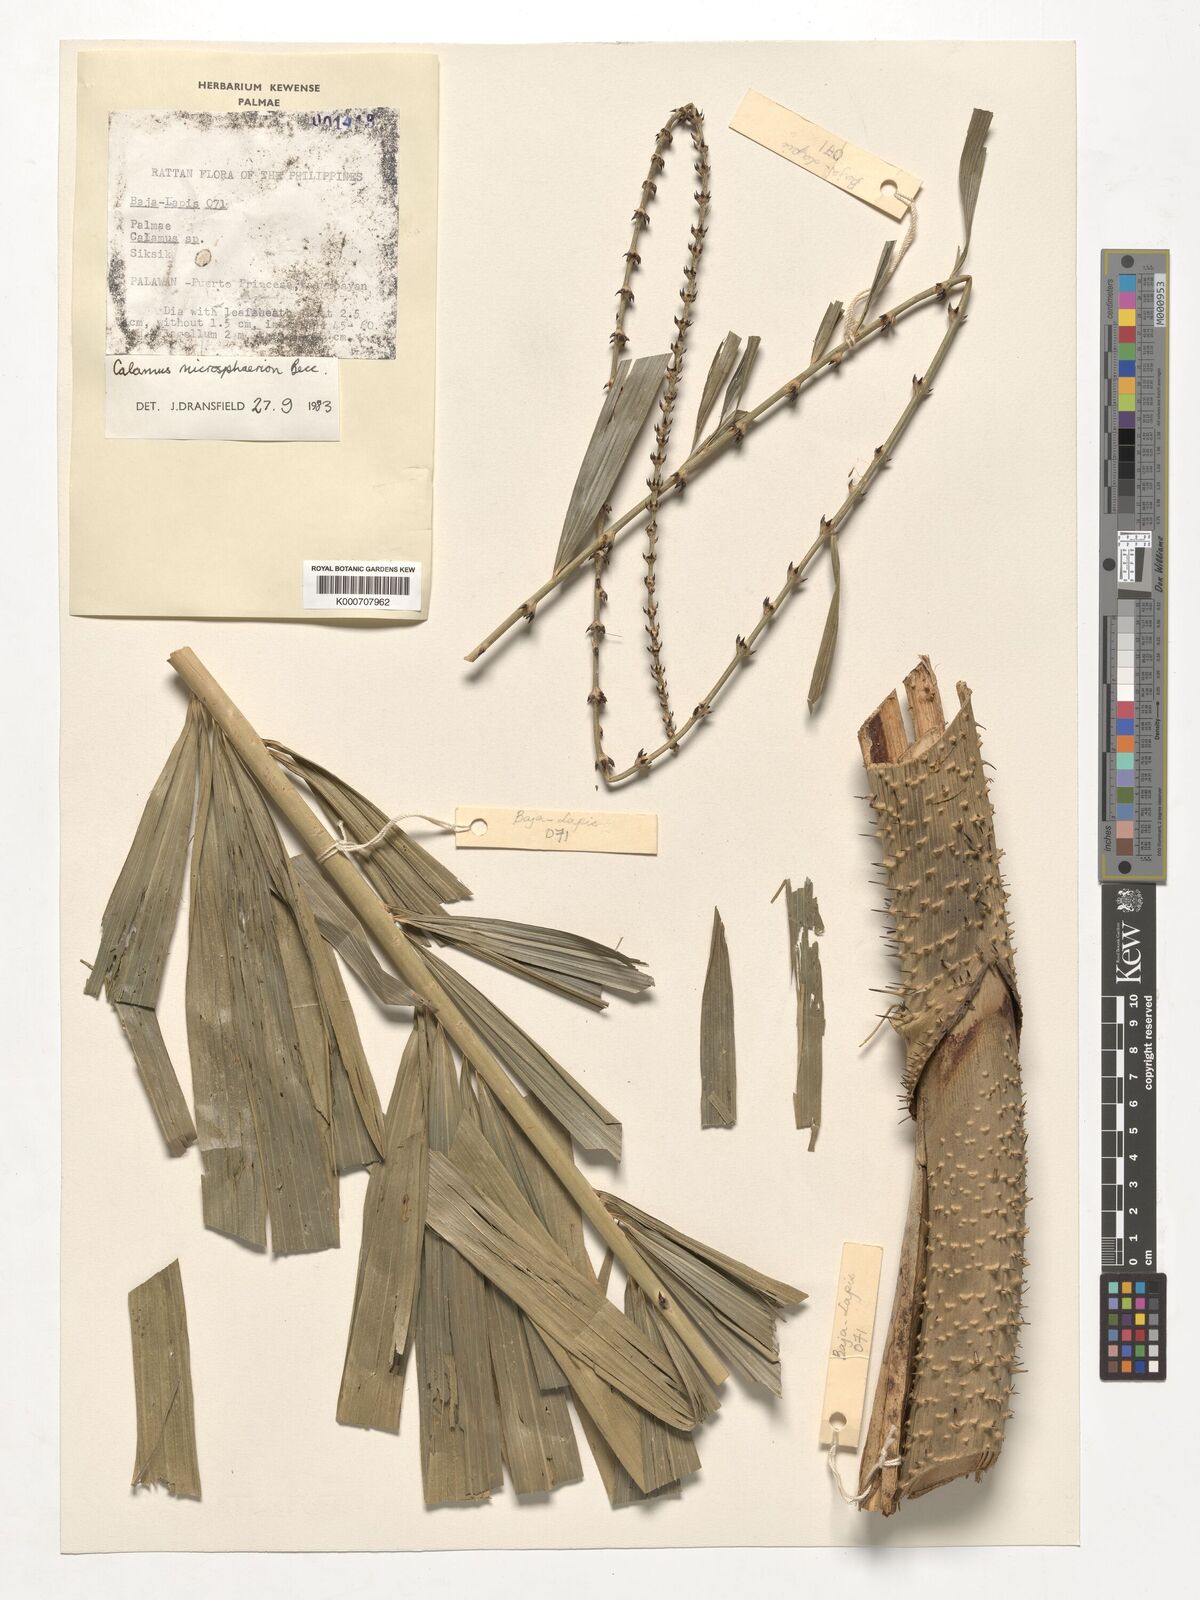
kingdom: Plantae
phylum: Tracheophyta
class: Liliopsida
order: Arecales
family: Arecaceae
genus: Calamus
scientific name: Calamus microsphaerion
